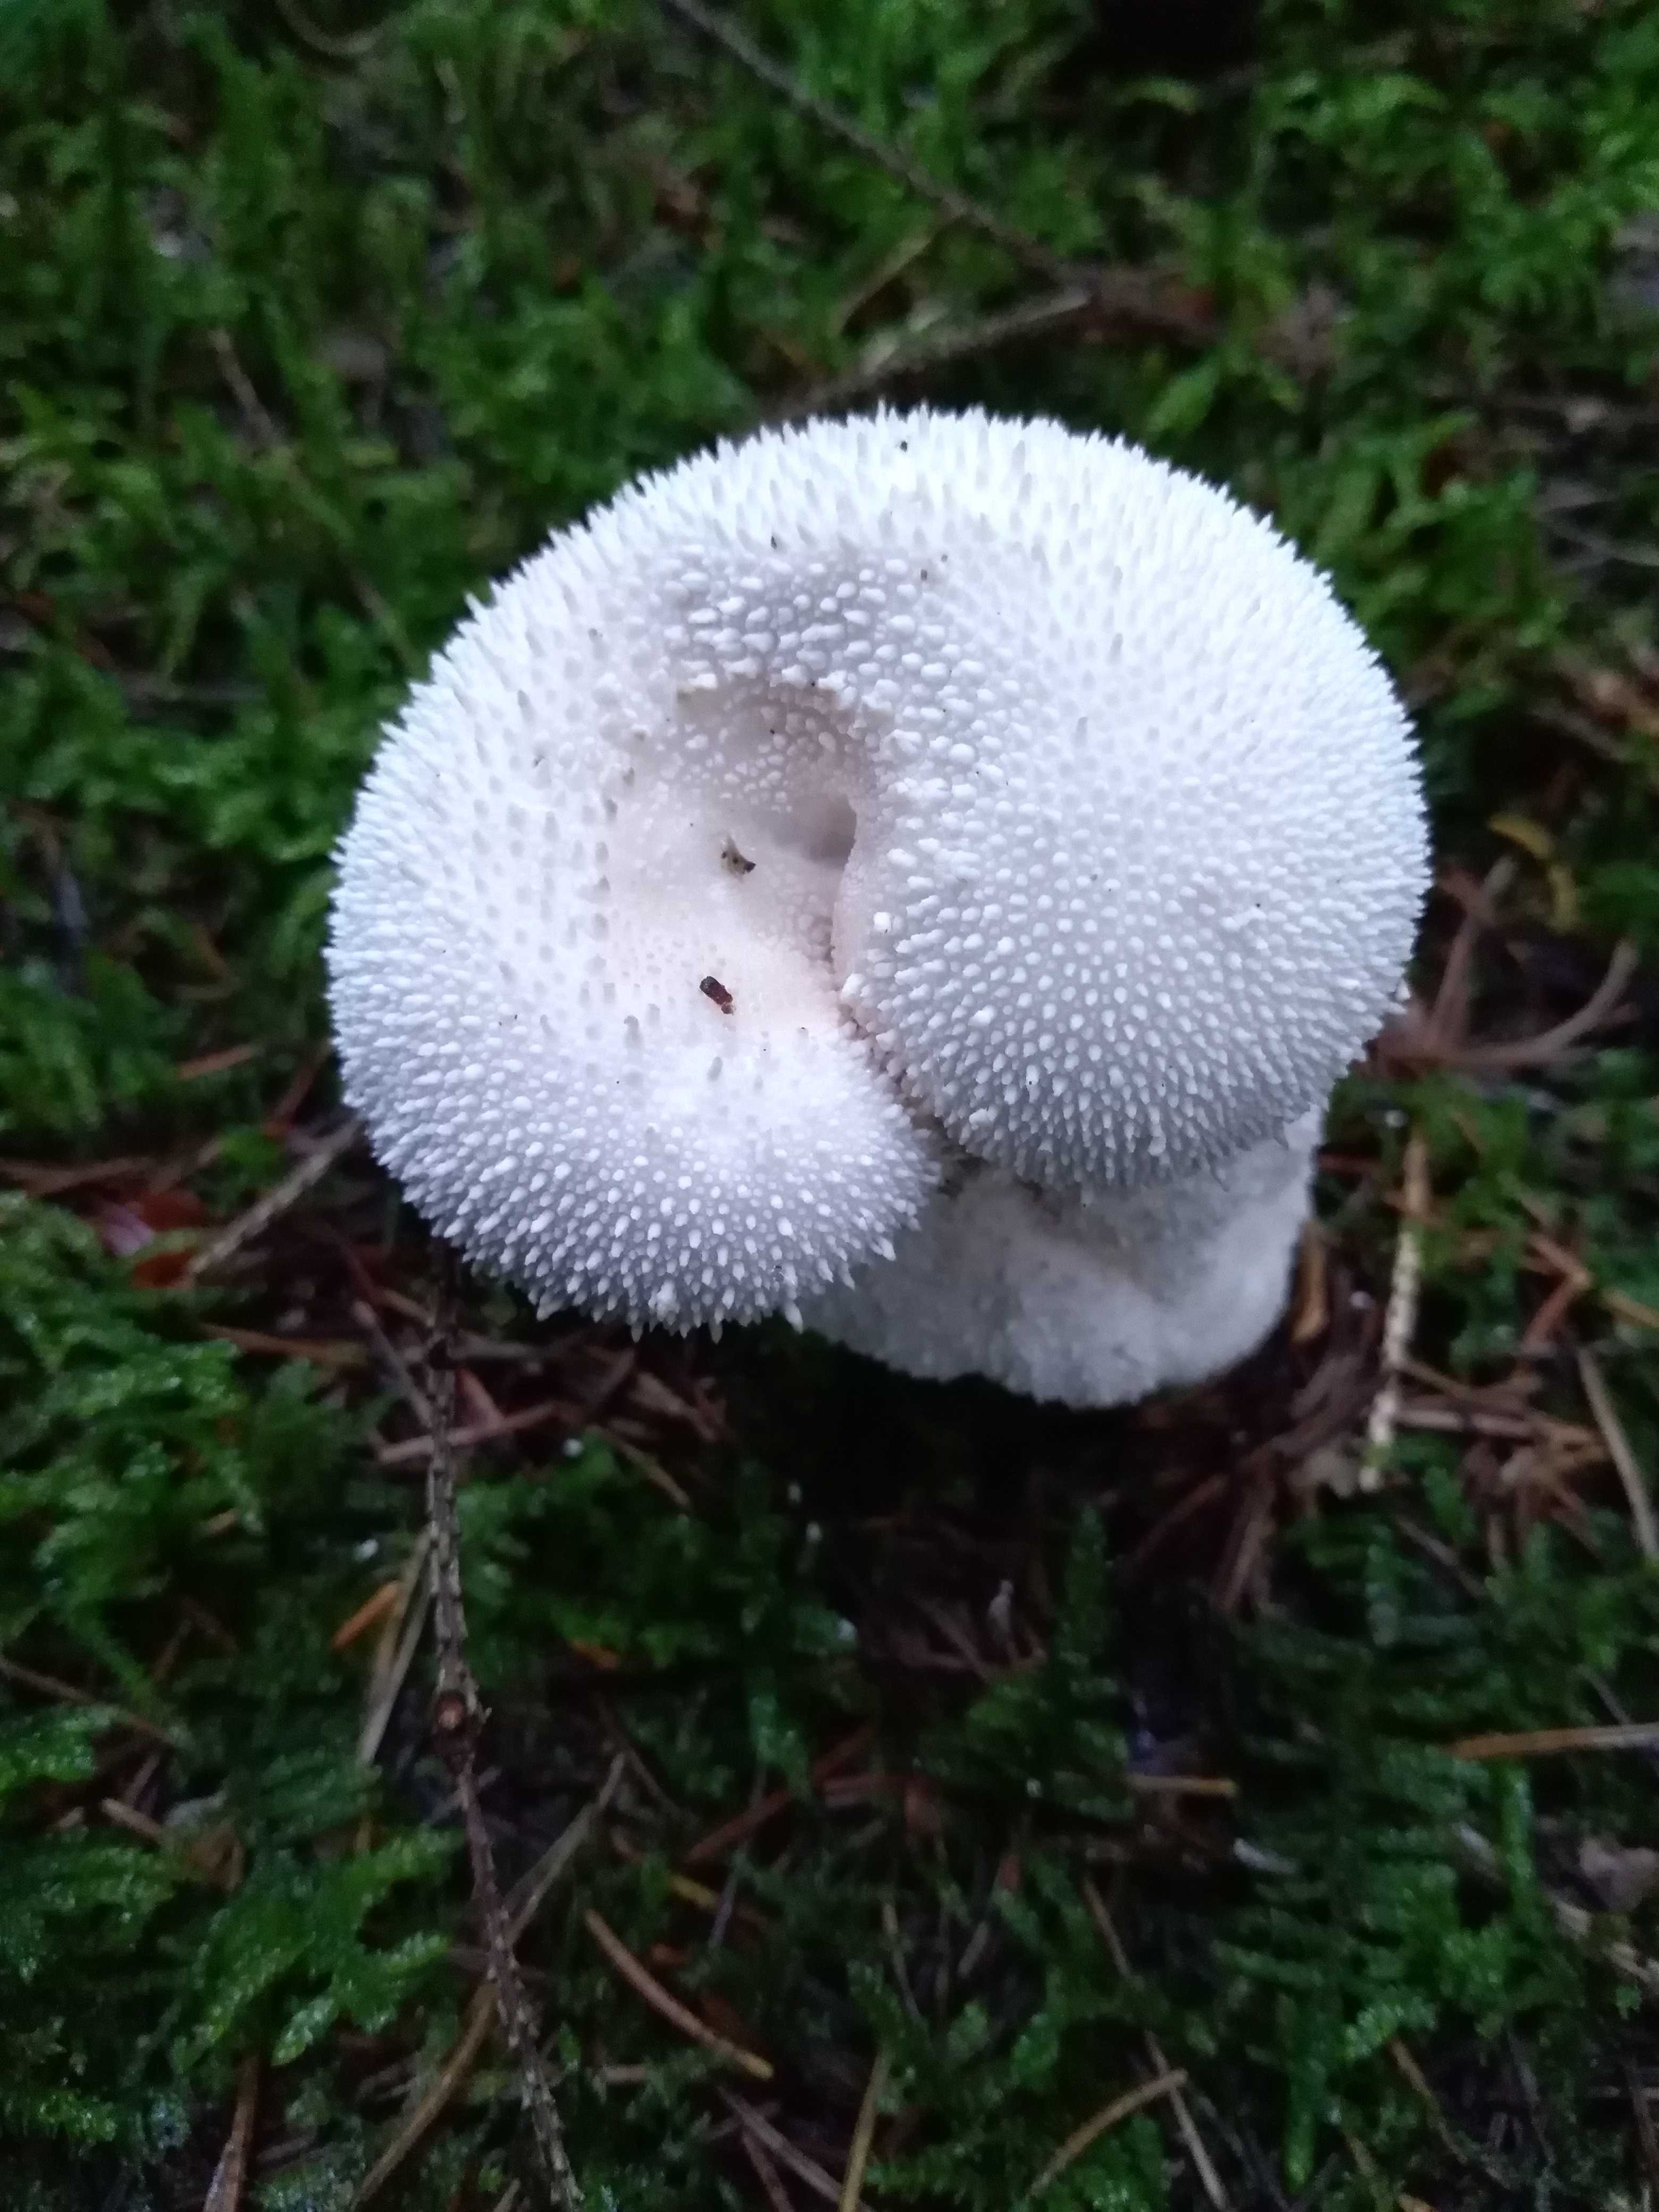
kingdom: Fungi
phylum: Basidiomycota
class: Agaricomycetes
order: Agaricales
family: Lycoperdaceae
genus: Lycoperdon
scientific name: Lycoperdon perlatum
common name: krystal-støvbold
